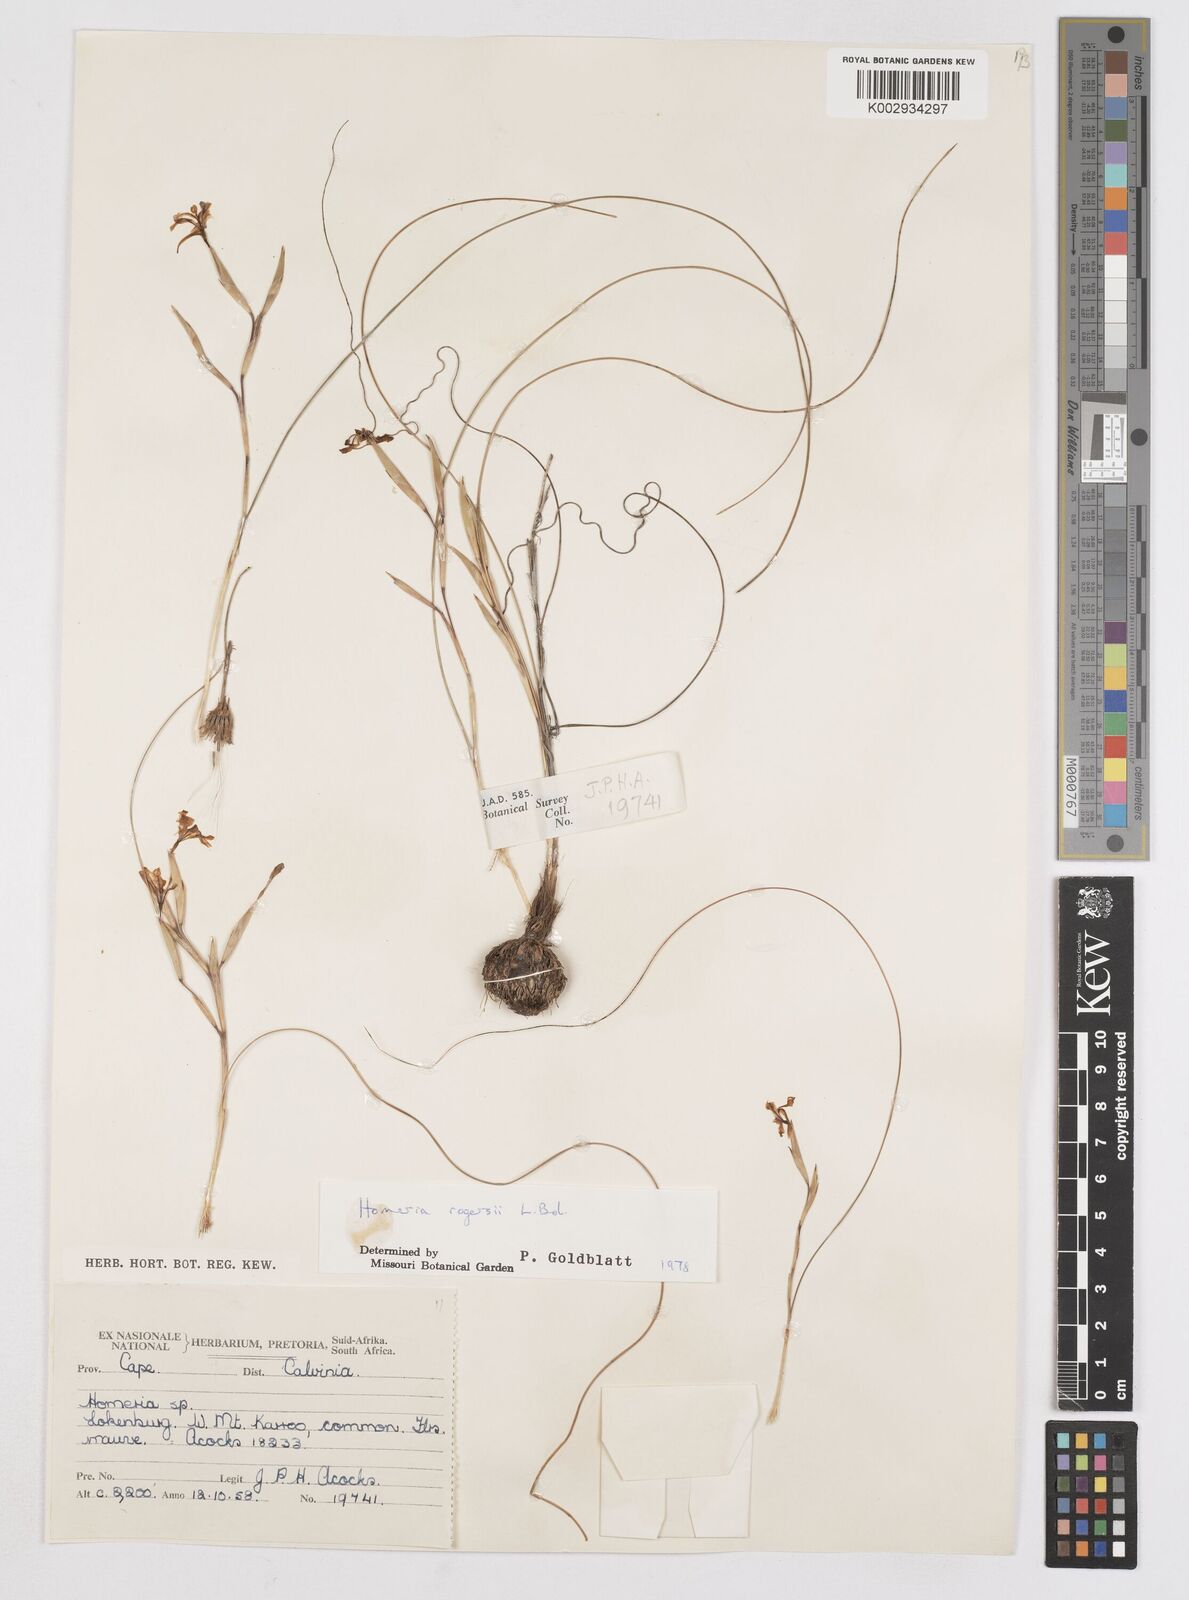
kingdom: Plantae
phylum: Tracheophyta
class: Liliopsida
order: Asparagales
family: Iridaceae
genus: Moraea
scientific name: Moraea crispa
